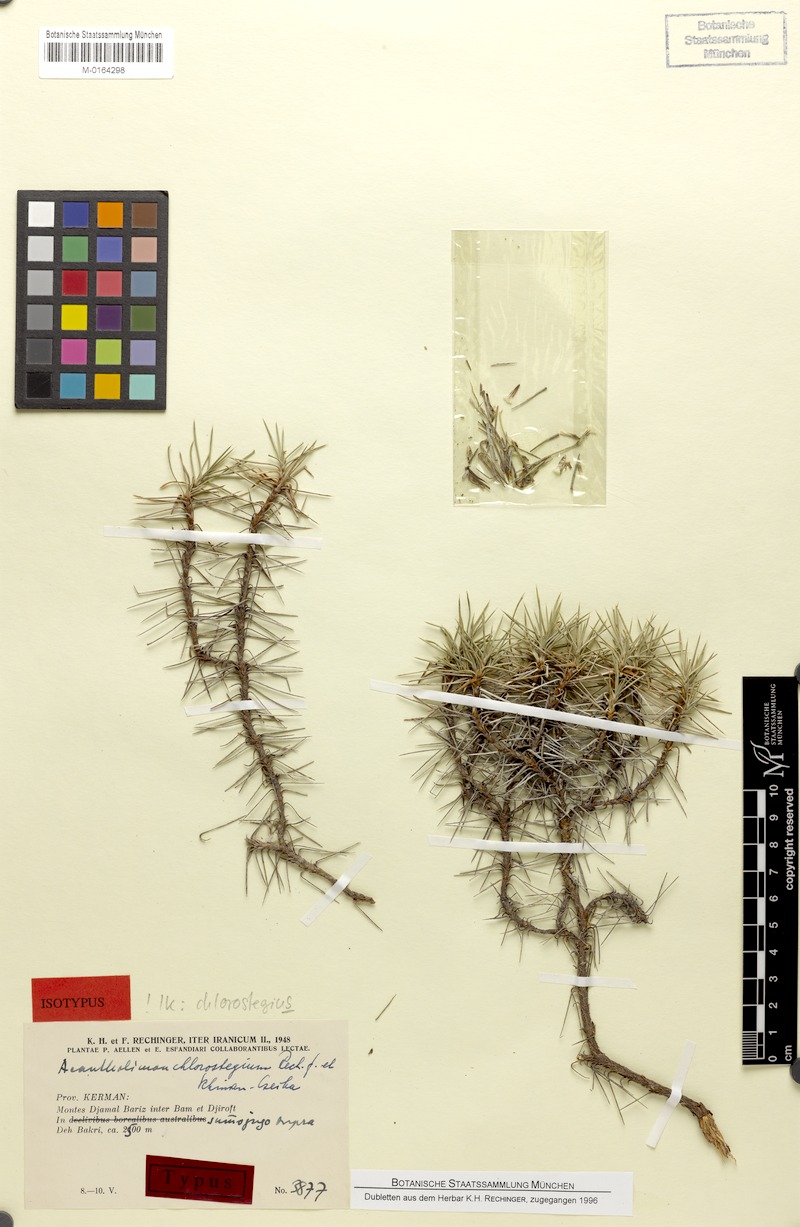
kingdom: Plantae
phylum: Tracheophyta
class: Magnoliopsida
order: Caryophyllales
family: Plumbaginaceae
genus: Acantholimon
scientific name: Acantholimon chlorostegium
